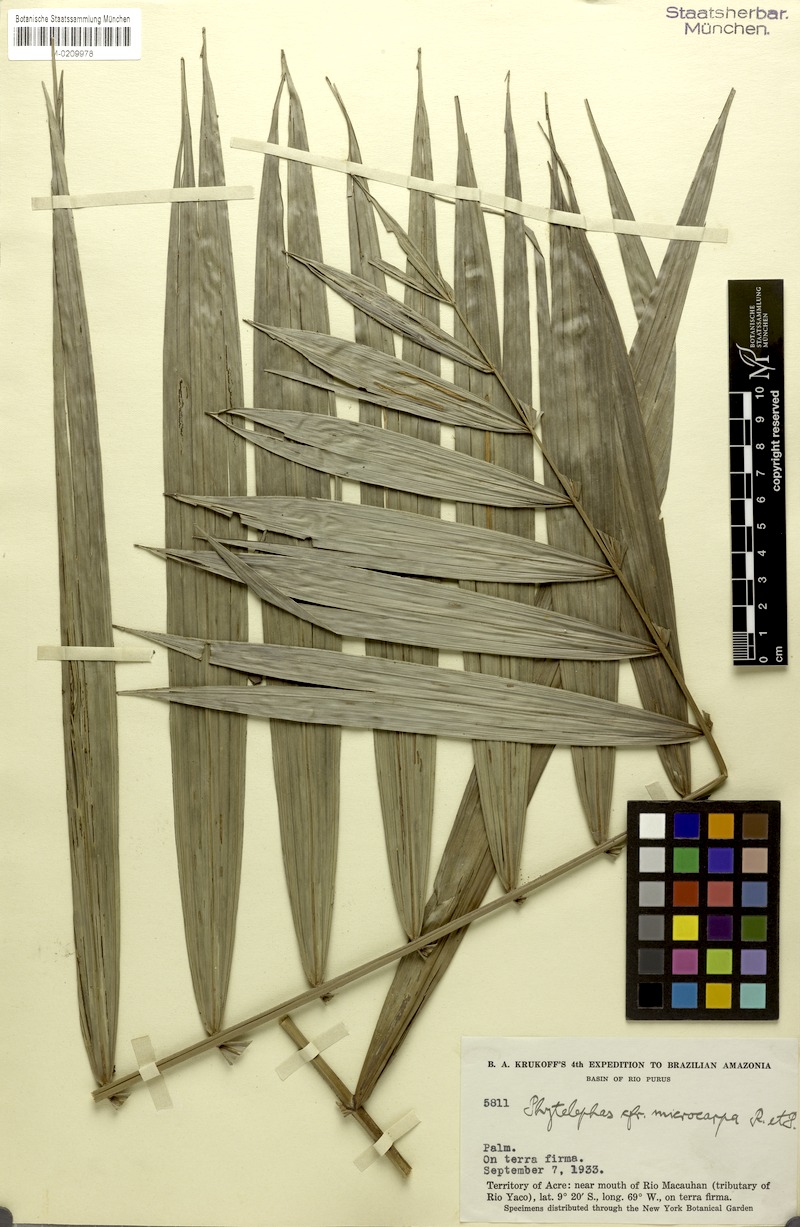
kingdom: Plantae
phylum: Tracheophyta
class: Liliopsida
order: Arecales
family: Arecaceae
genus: Phytelephas
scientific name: Phytelephas macrocarpa
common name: Ivory palm
